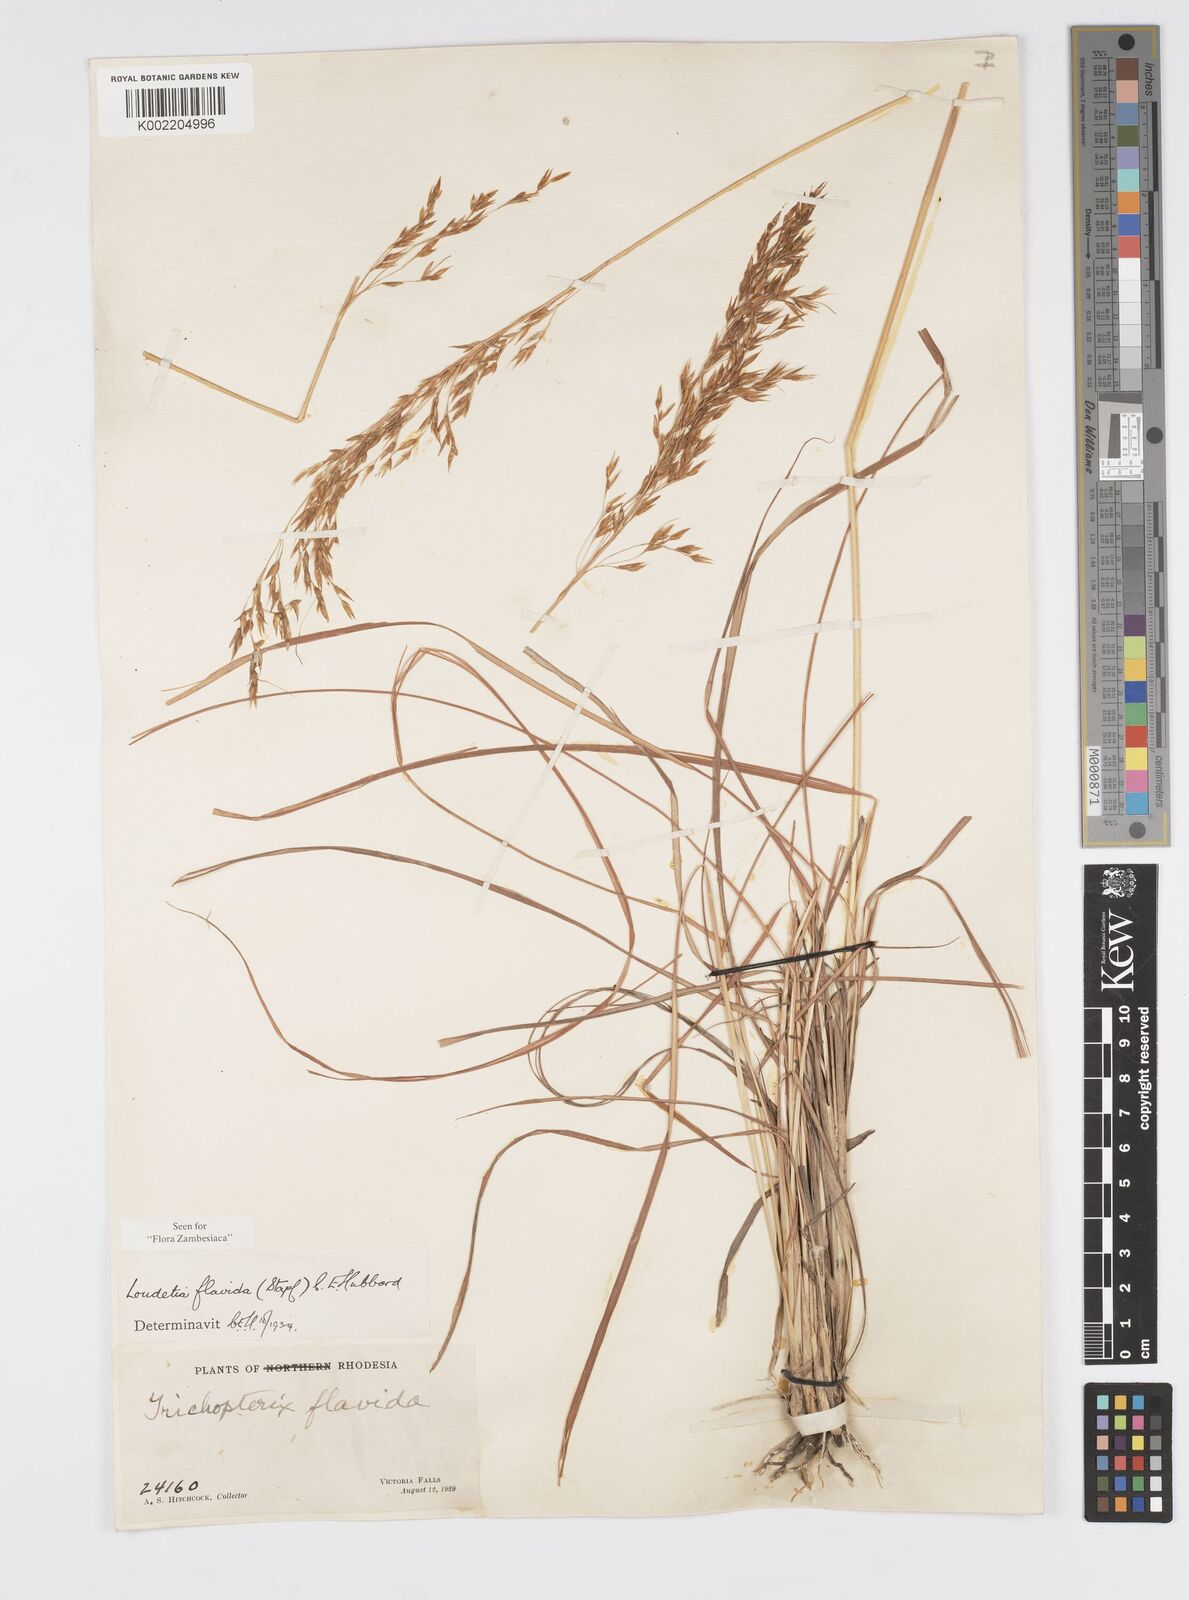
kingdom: Plantae
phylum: Tracheophyta
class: Liliopsida
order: Poales
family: Poaceae
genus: Loudetia
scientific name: Loudetia flavida
